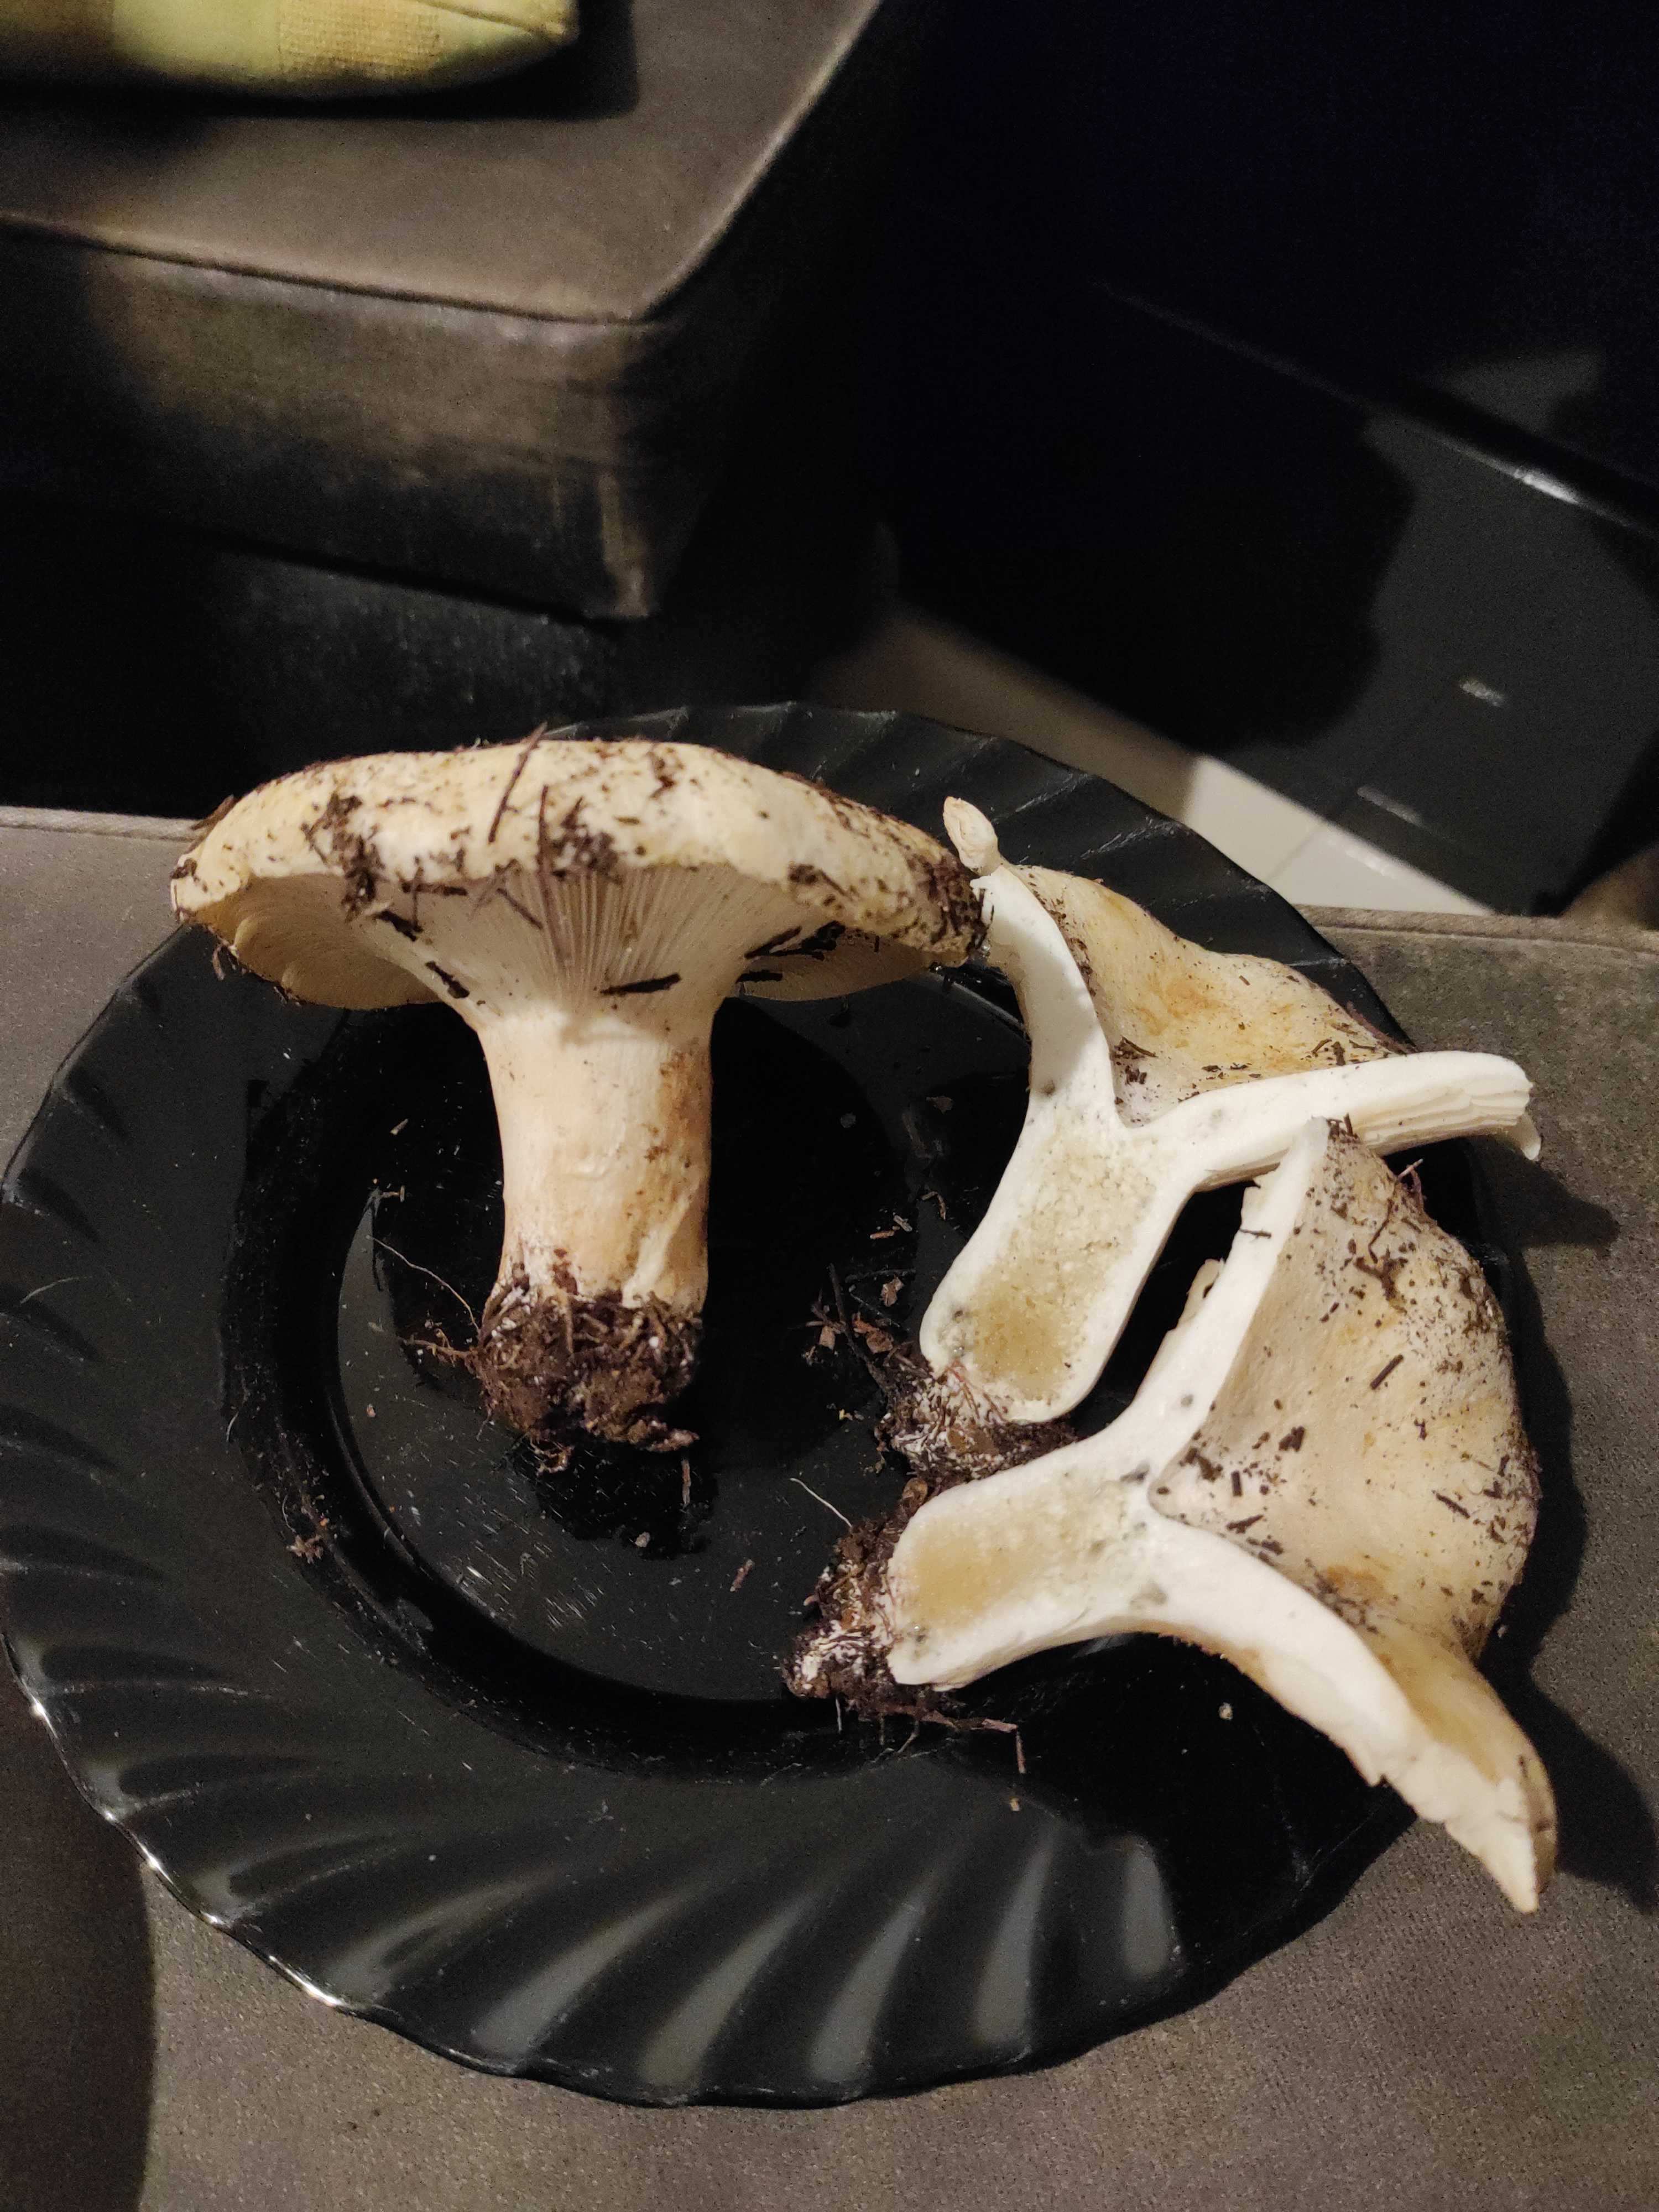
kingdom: Fungi
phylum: Basidiomycota
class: Agaricomycetes
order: Russulales
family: Russulaceae
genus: Russula
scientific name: Russula
